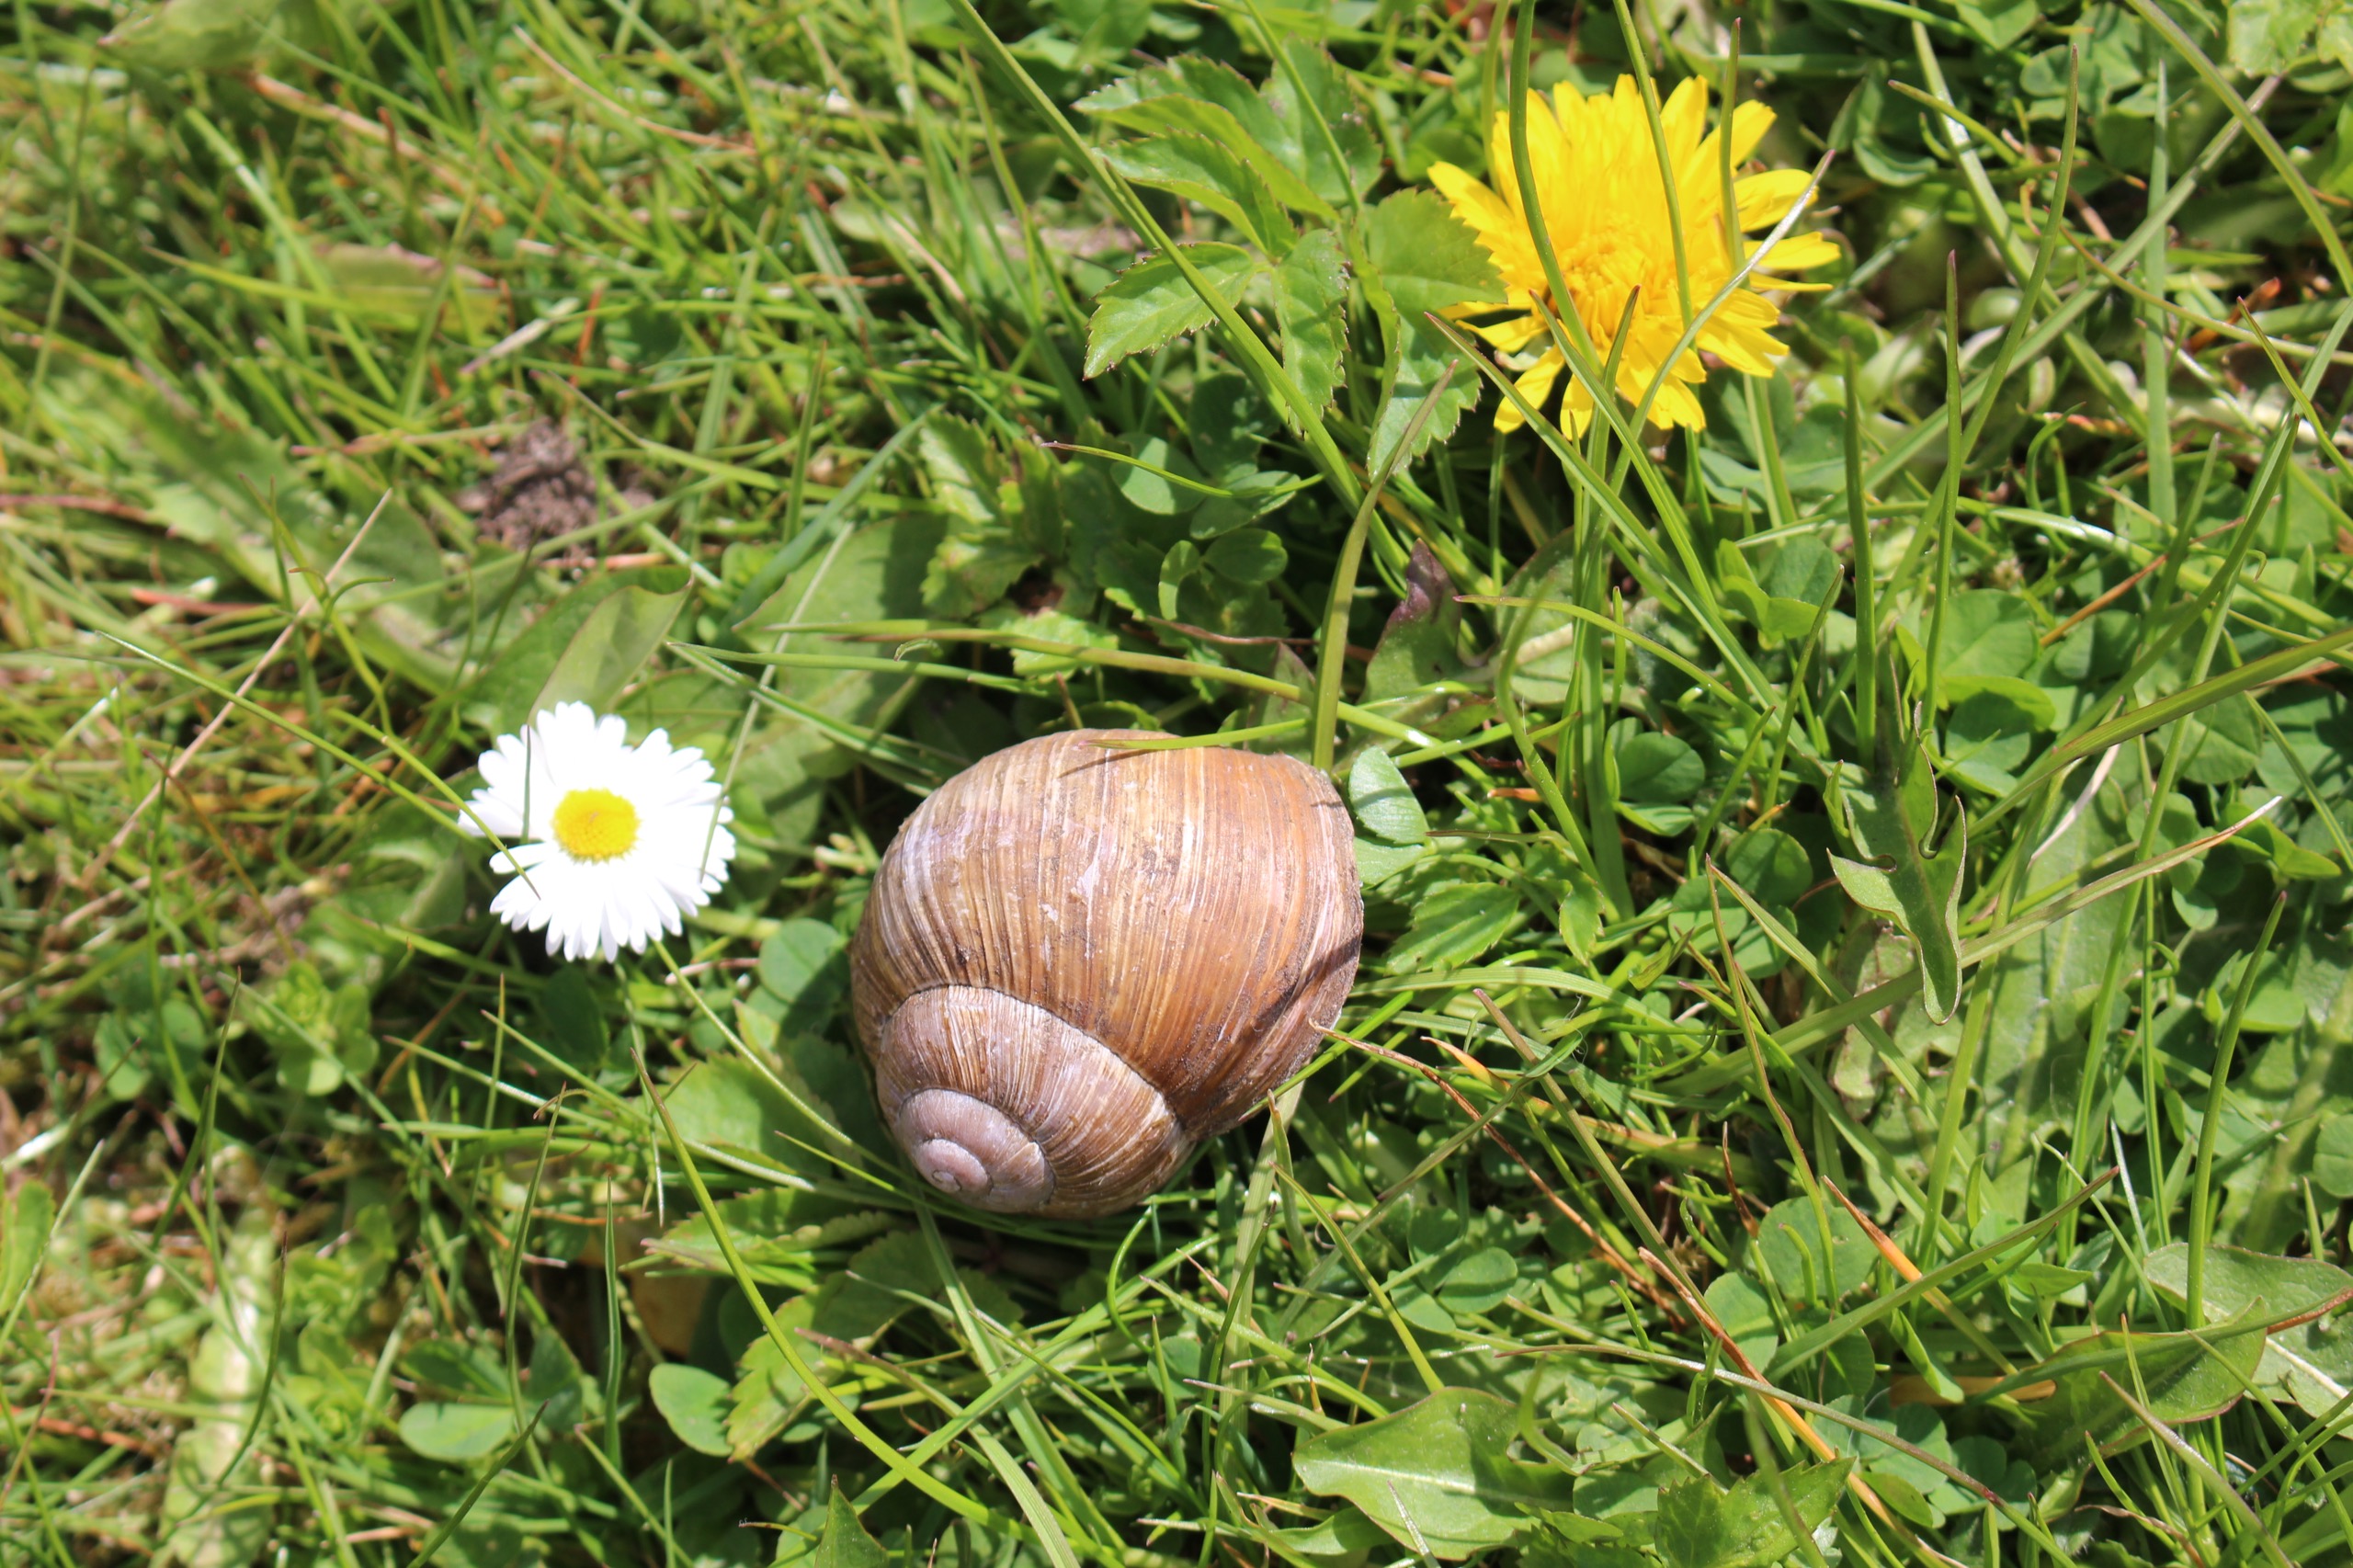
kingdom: Animalia
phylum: Mollusca
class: Gastropoda
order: Stylommatophora
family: Helicidae
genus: Helix
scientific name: Helix pomatia
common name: Vinbjergsnegl
